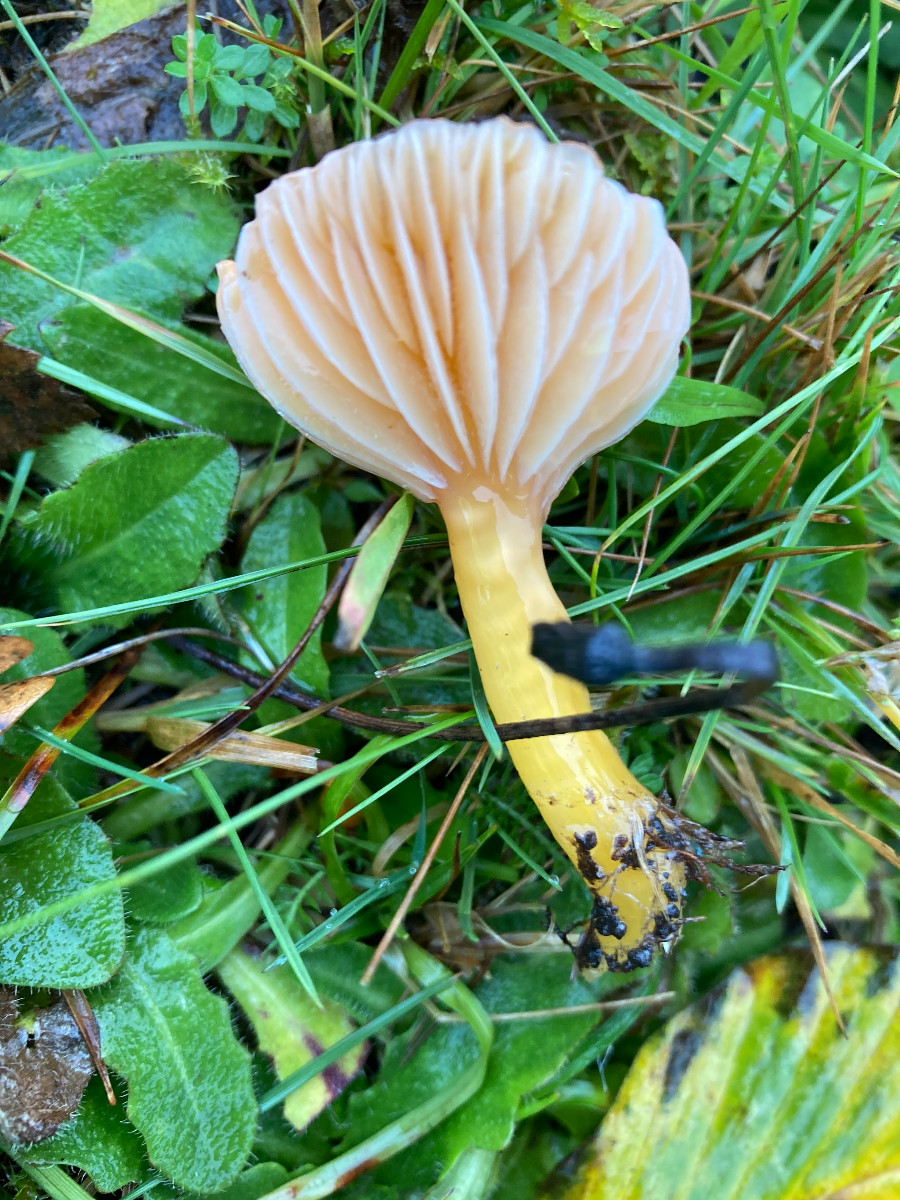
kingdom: Fungi
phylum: Basidiomycota
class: Agaricomycetes
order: Agaricales
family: Hygrophoraceae
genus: Gliophorus
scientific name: Gliophorus laetus
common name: brusk-vokshat
